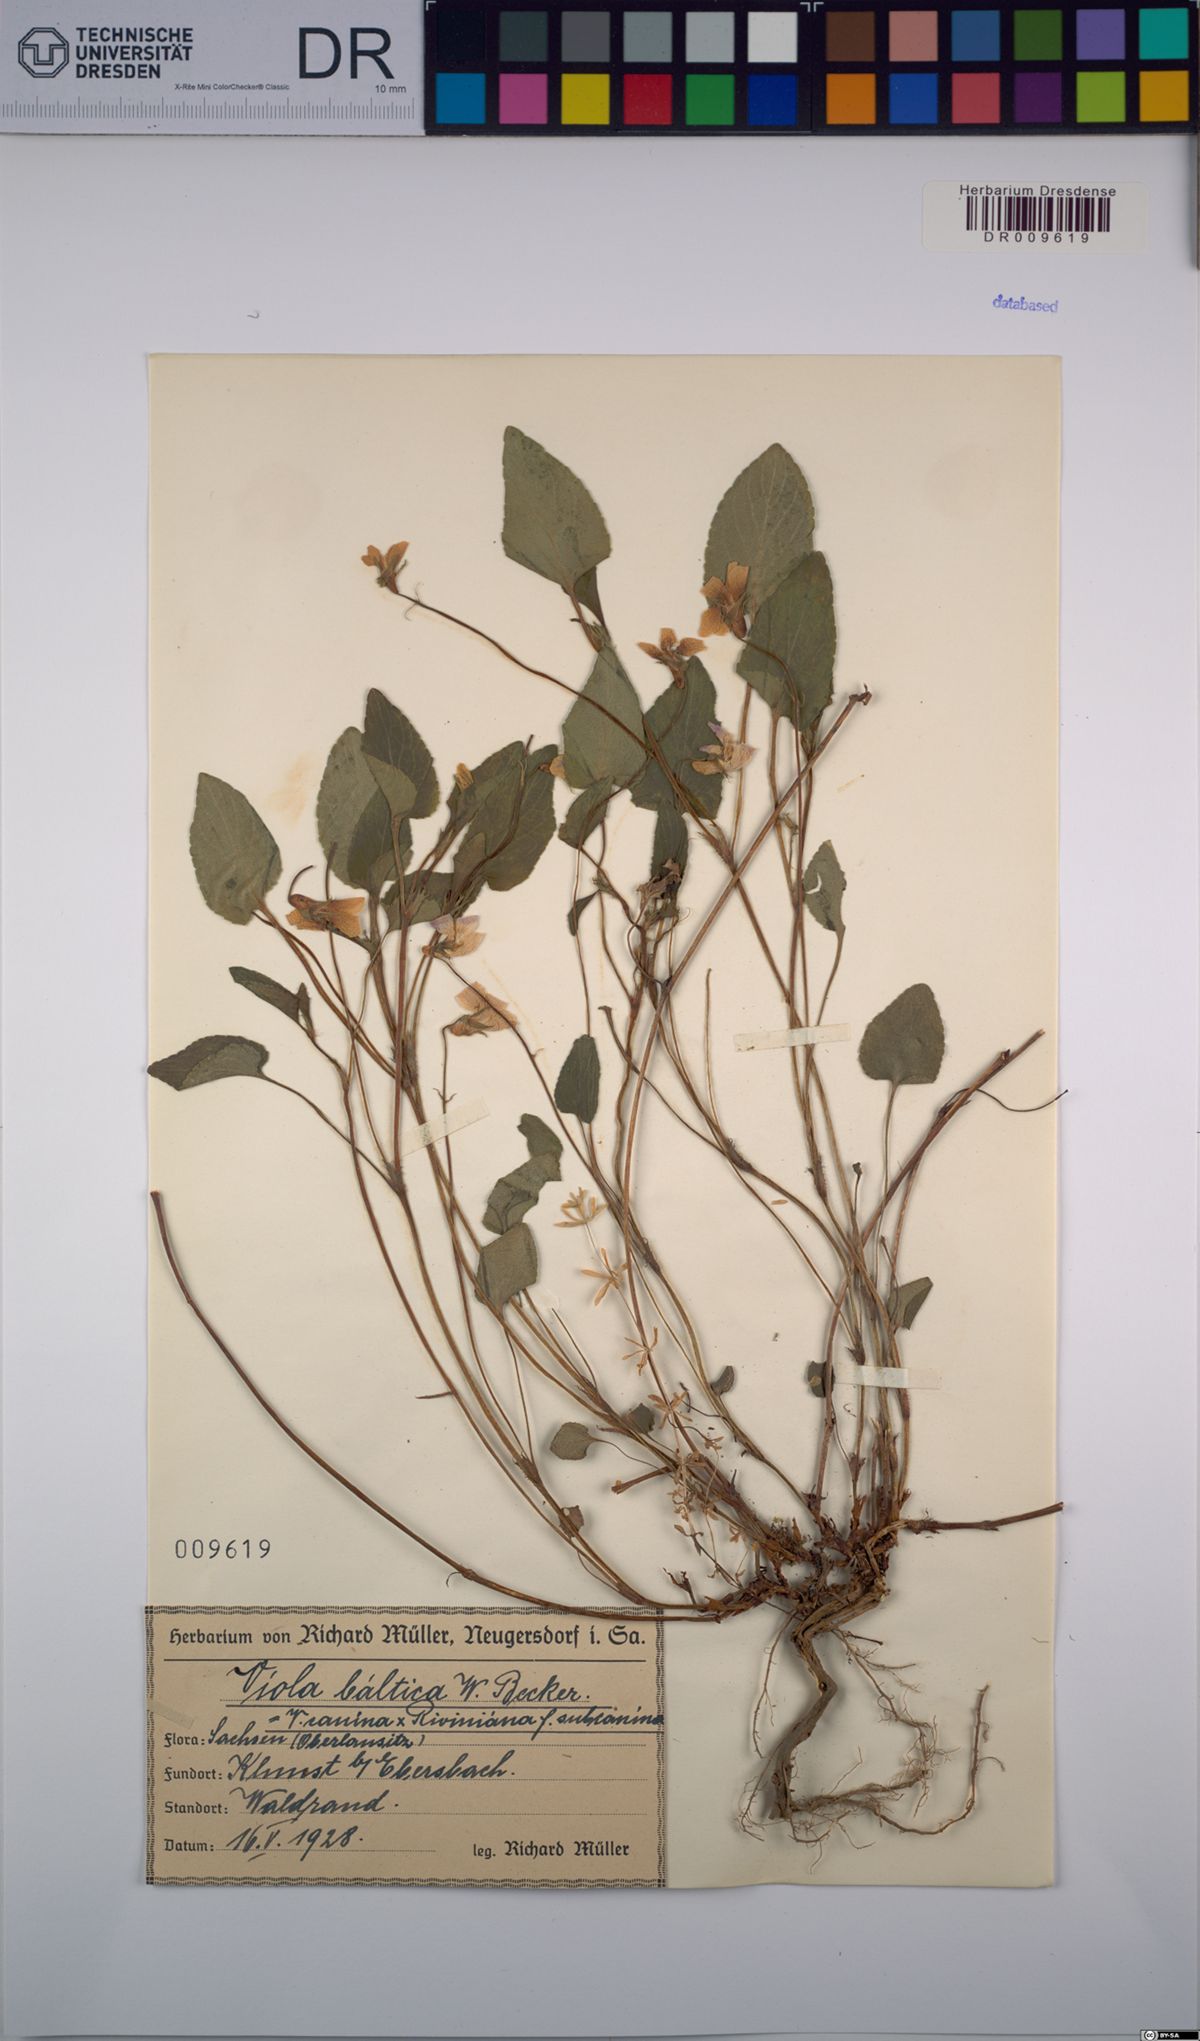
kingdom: Plantae
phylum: Tracheophyta
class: Magnoliopsida
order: Malpighiales
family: Violaceae
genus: Viola
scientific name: Viola riviniana
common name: Common dog-violet
